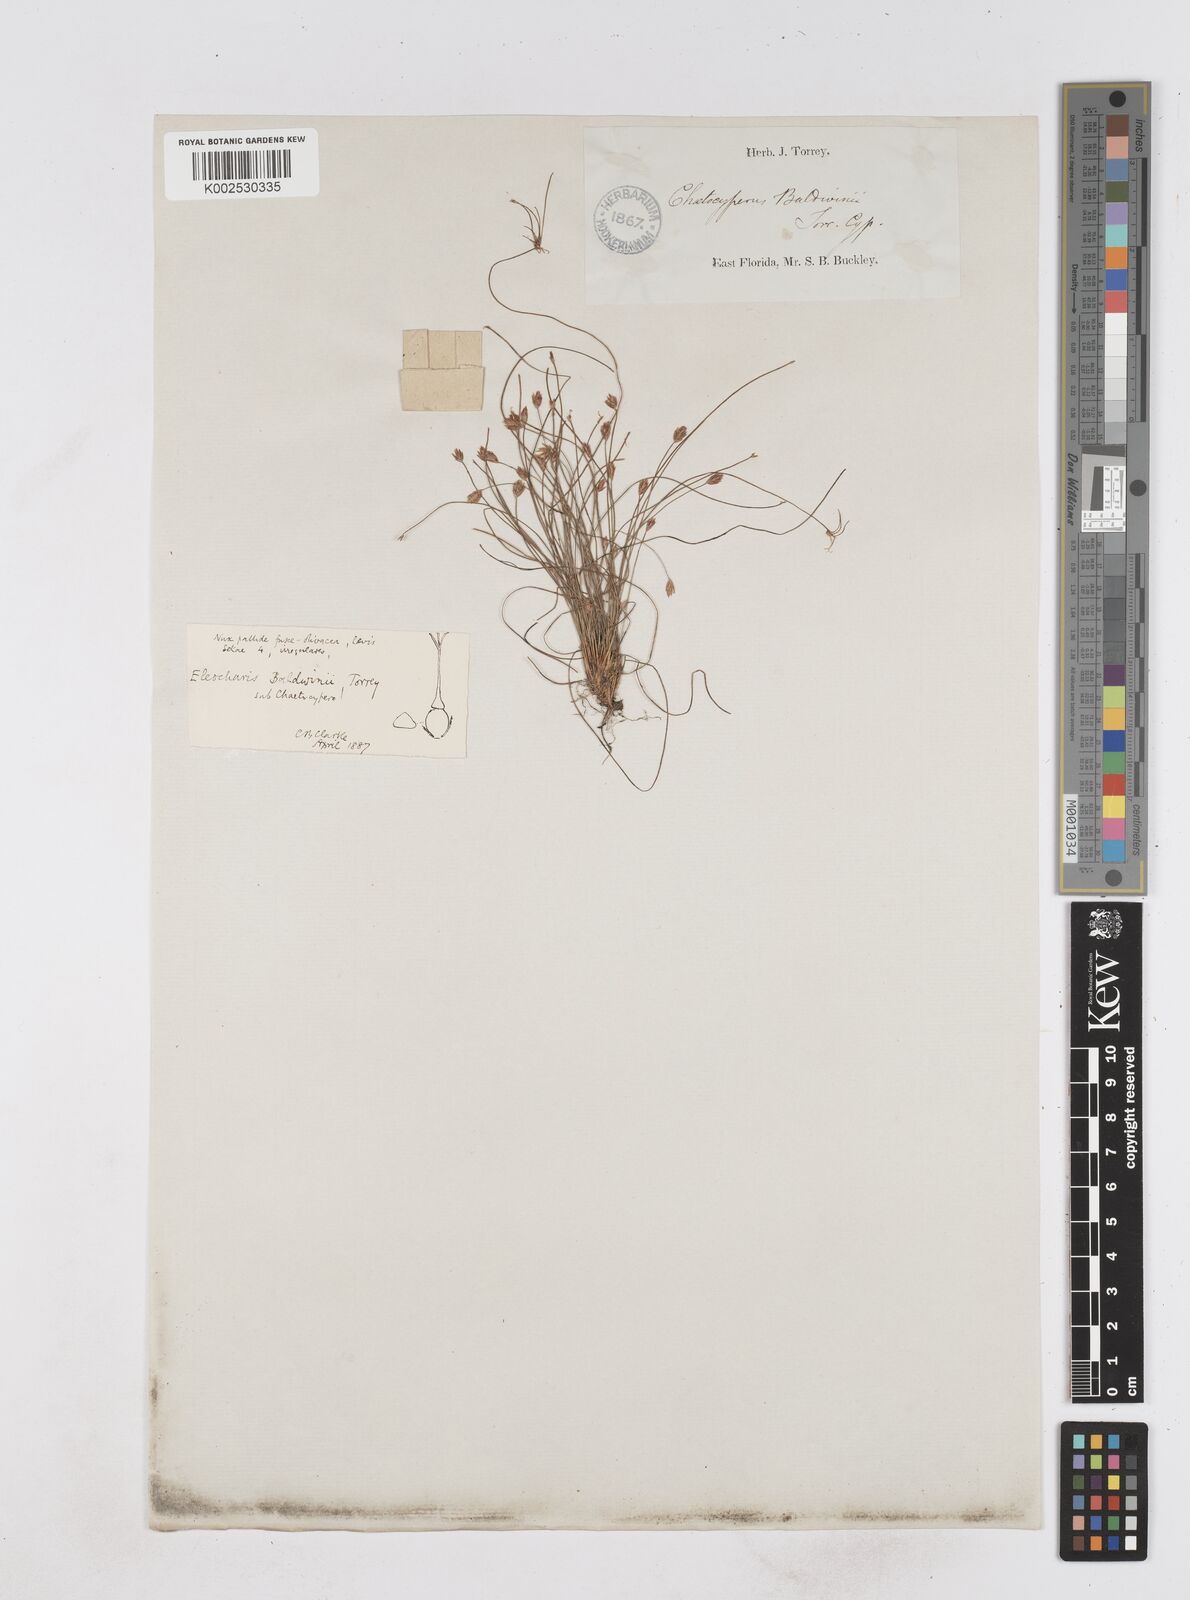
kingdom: Plantae
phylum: Tracheophyta
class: Liliopsida
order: Poales
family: Cyperaceae
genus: Eleocharis
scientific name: Eleocharis baldwinii
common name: Baldwin's spike-rush
